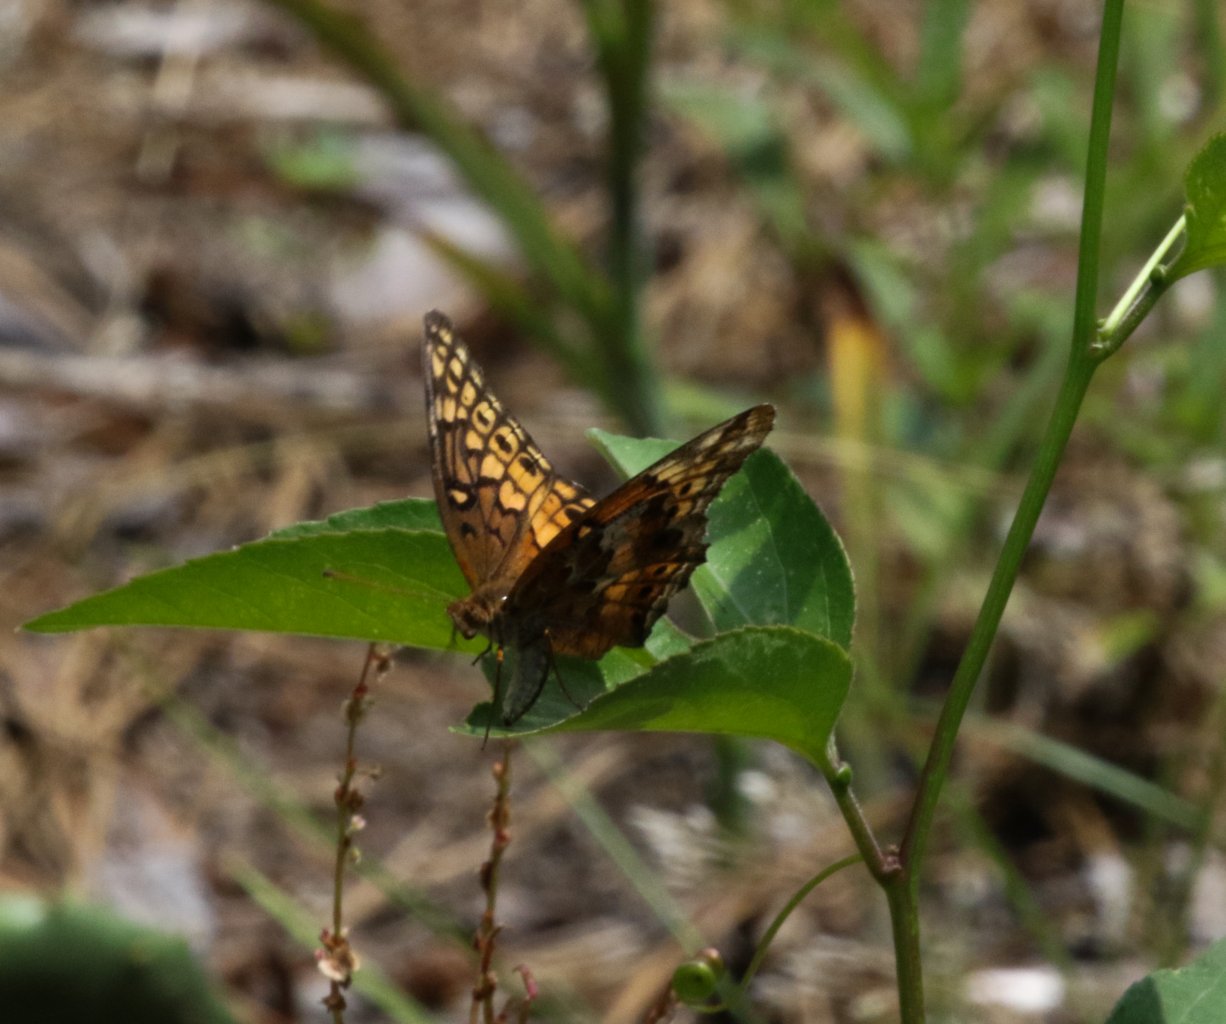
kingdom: Animalia
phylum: Arthropoda
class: Insecta
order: Lepidoptera
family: Nymphalidae
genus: Euptoieta
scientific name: Euptoieta claudia
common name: Variegated Fritillary
